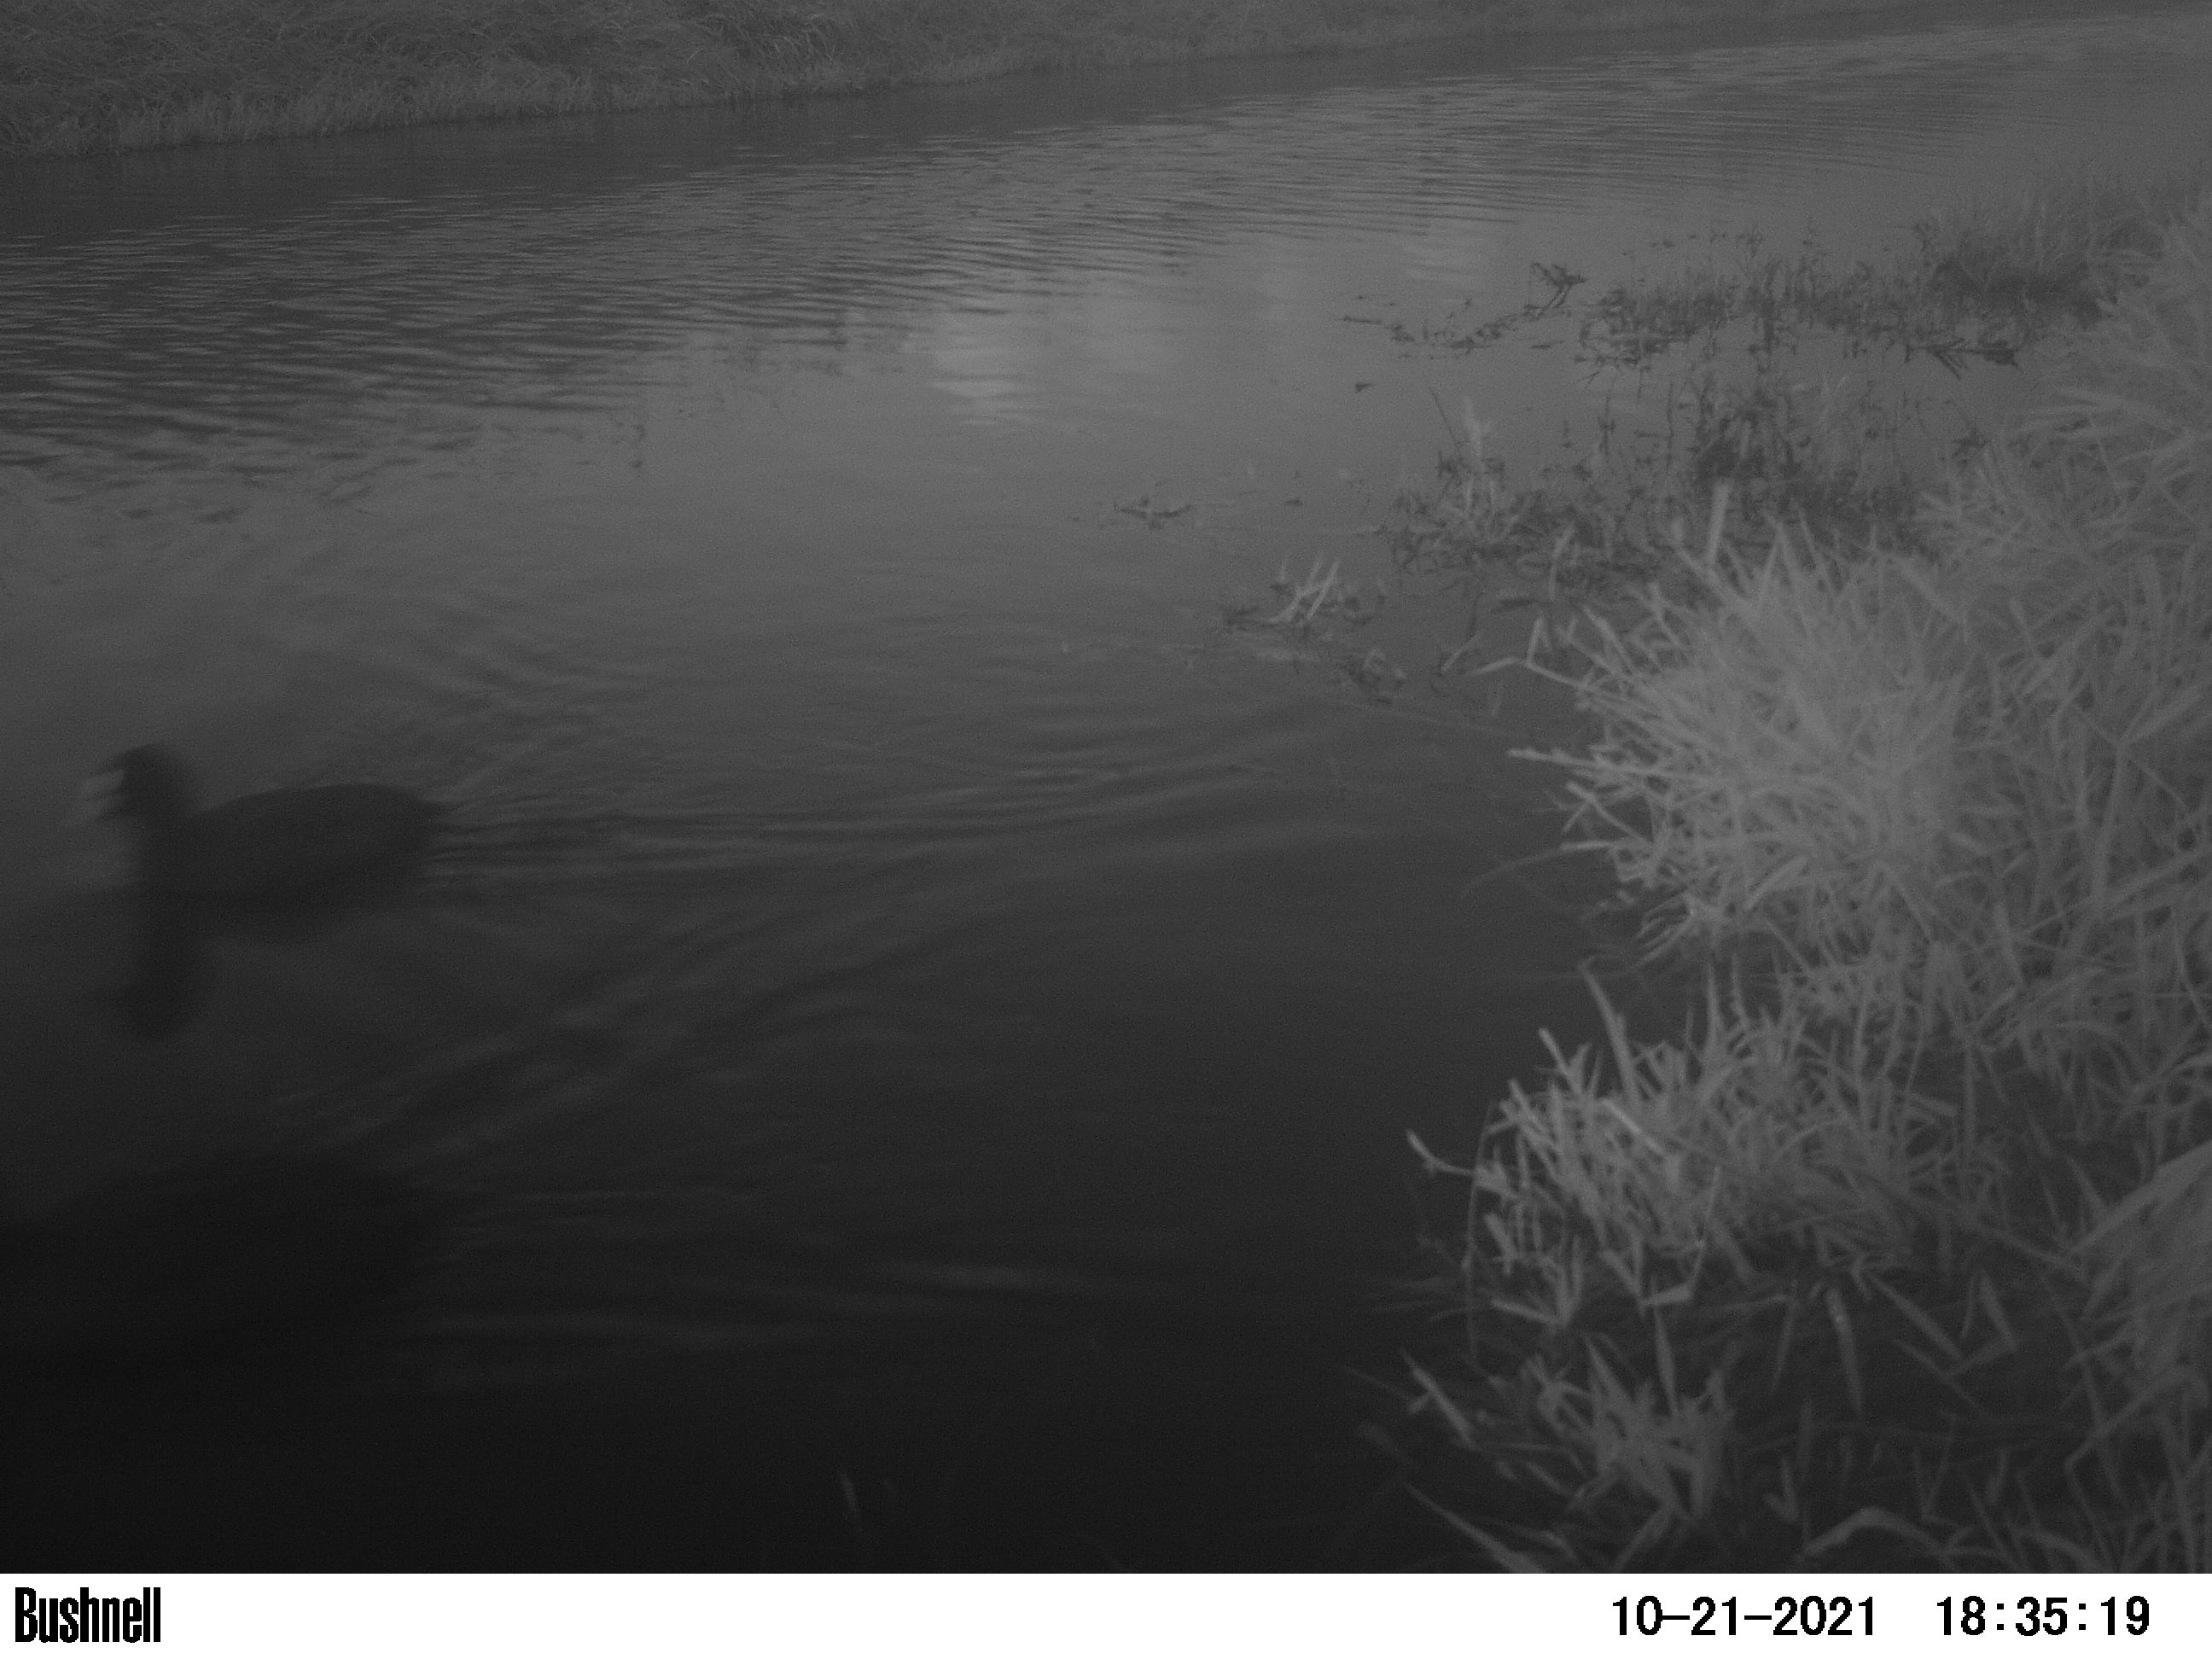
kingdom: Animalia
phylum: Chordata
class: Aves
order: Gruiformes
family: Rallidae
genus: Fulica
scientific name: Fulica atra
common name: Eurasian coot
